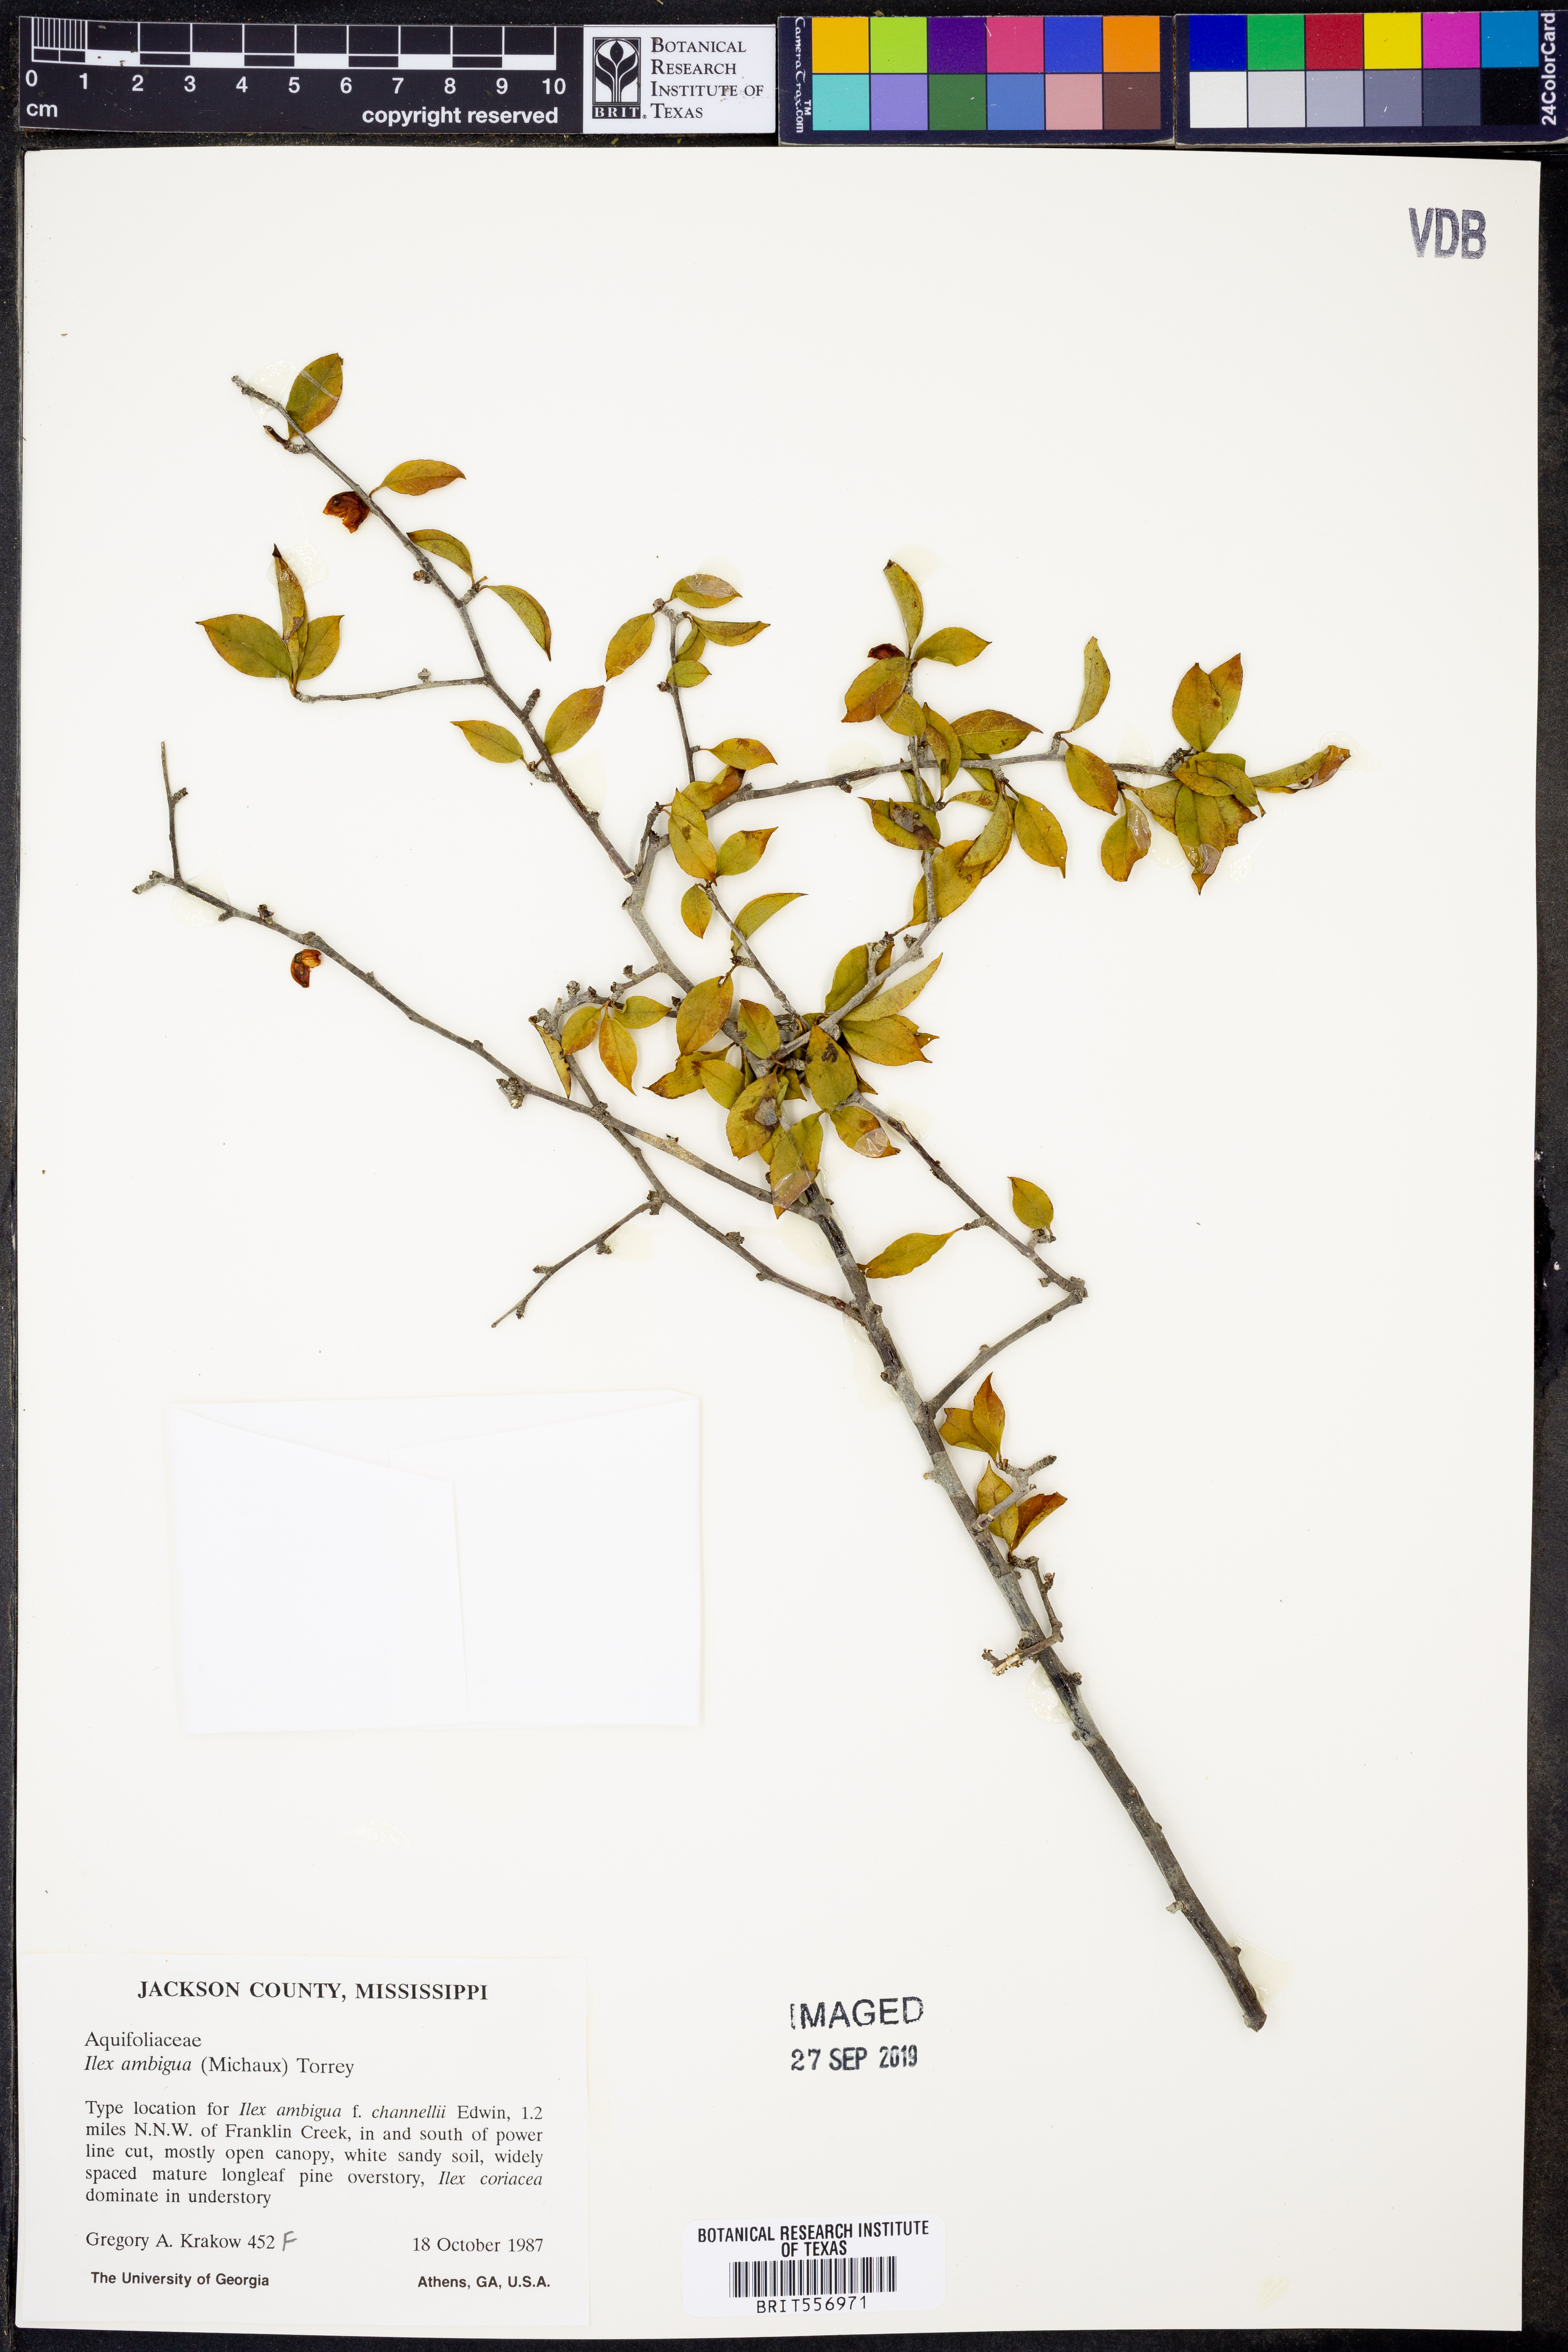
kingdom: Plantae
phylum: Tracheophyta
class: Magnoliopsida
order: Aquifoliales
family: Aquifoliaceae
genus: Ilex
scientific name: Ilex ambigua
